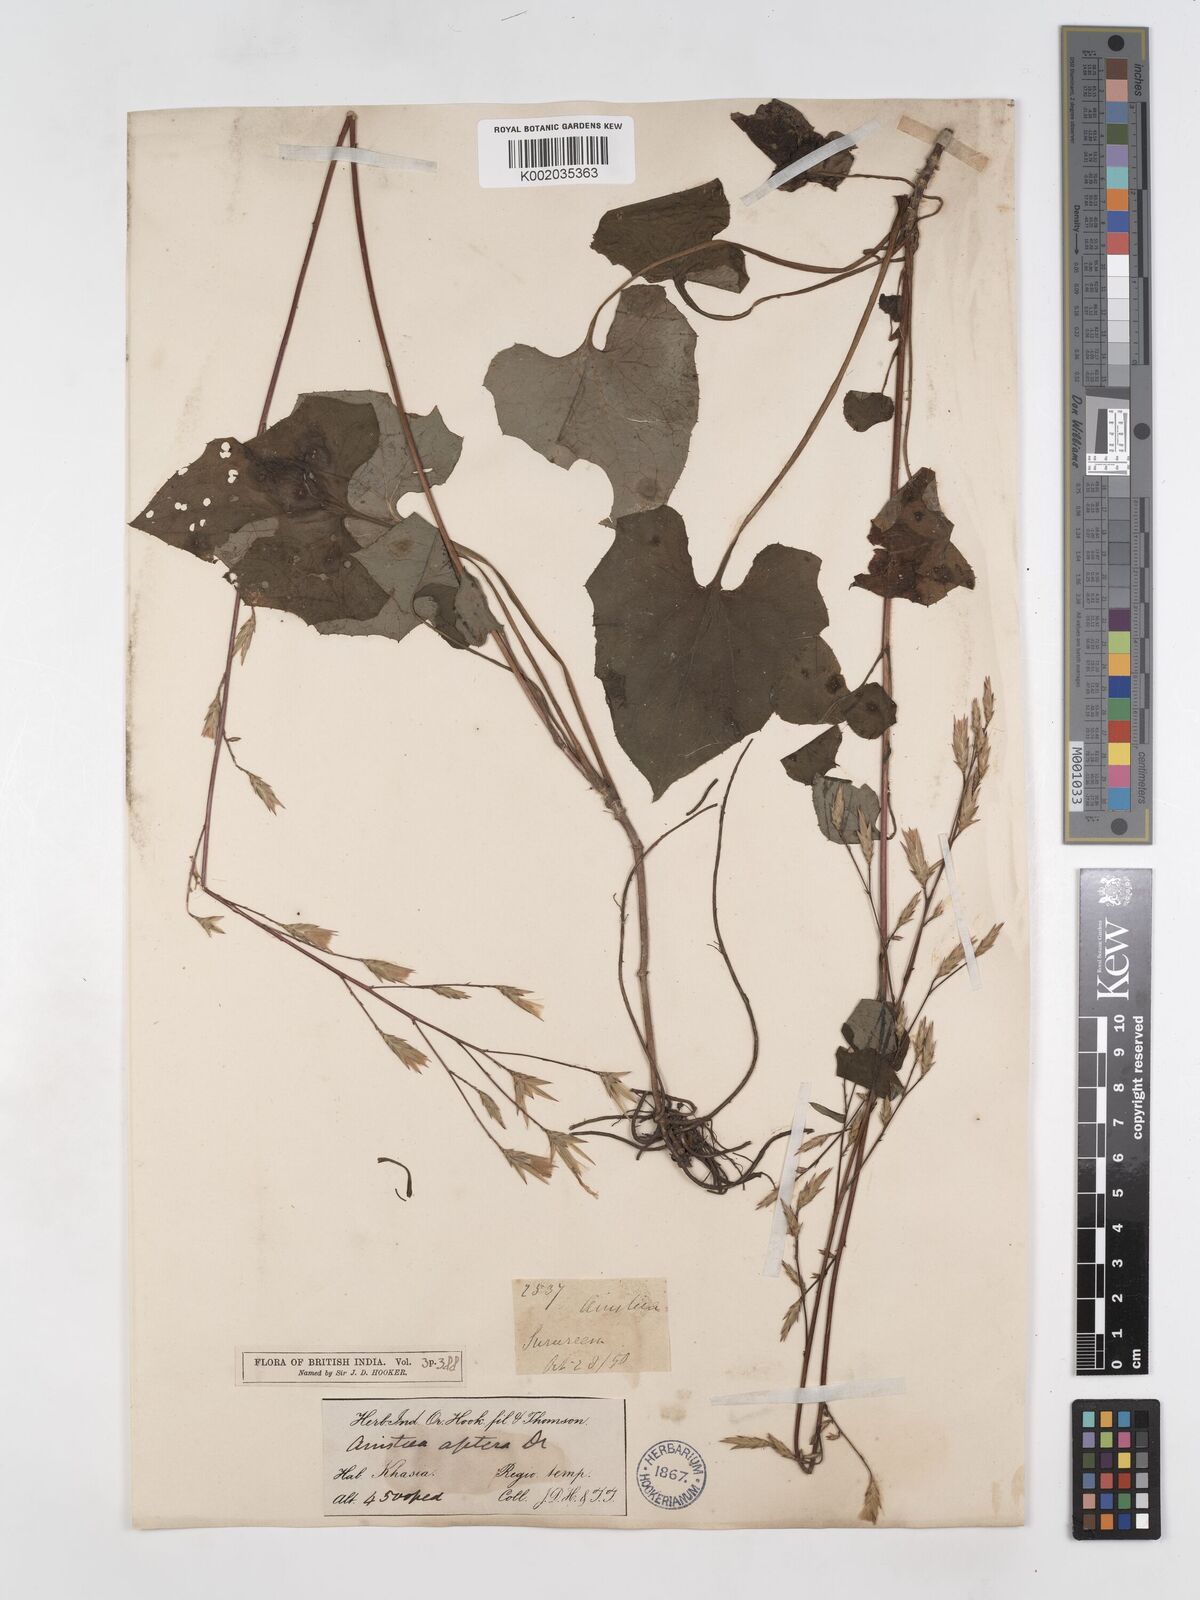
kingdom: Plantae
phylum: Tracheophyta
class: Magnoliopsida
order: Asterales
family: Asteraceae
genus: Ainsliaea
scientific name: Ainsliaea aptera
